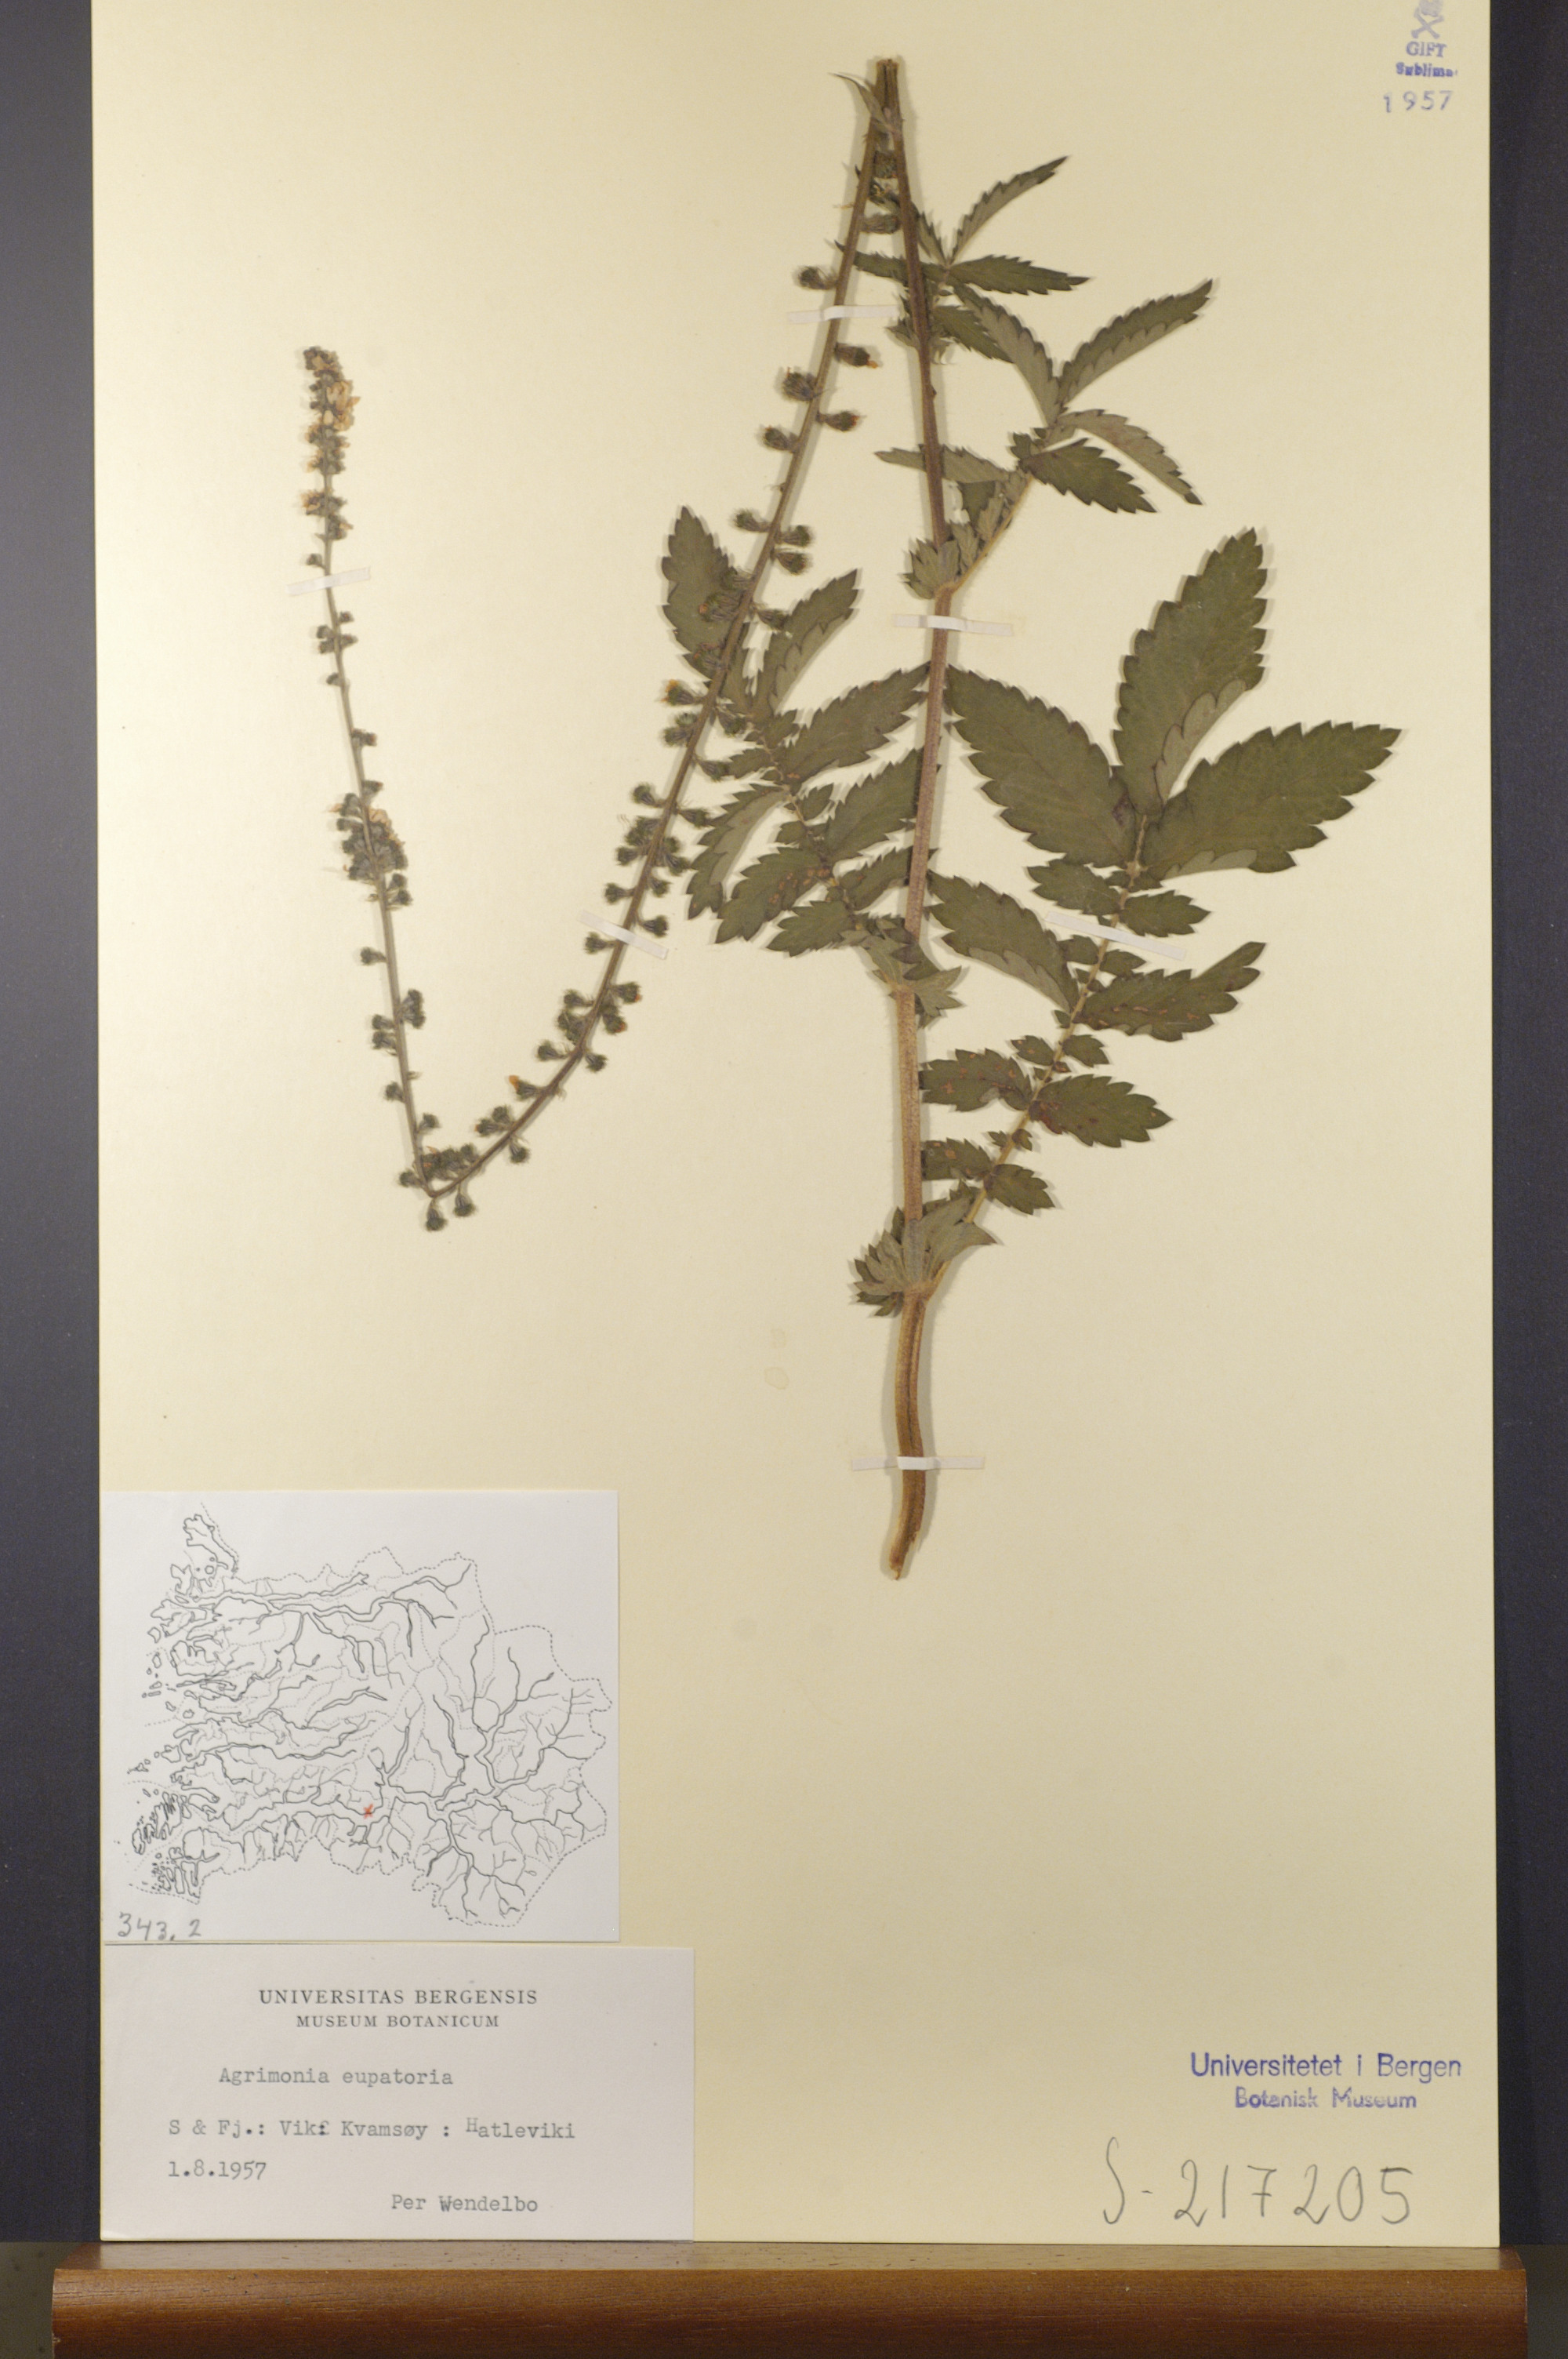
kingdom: Plantae
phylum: Tracheophyta
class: Magnoliopsida
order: Rosales
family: Rosaceae
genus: Agrimonia
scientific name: Agrimonia eupatoria
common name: Agrimony
